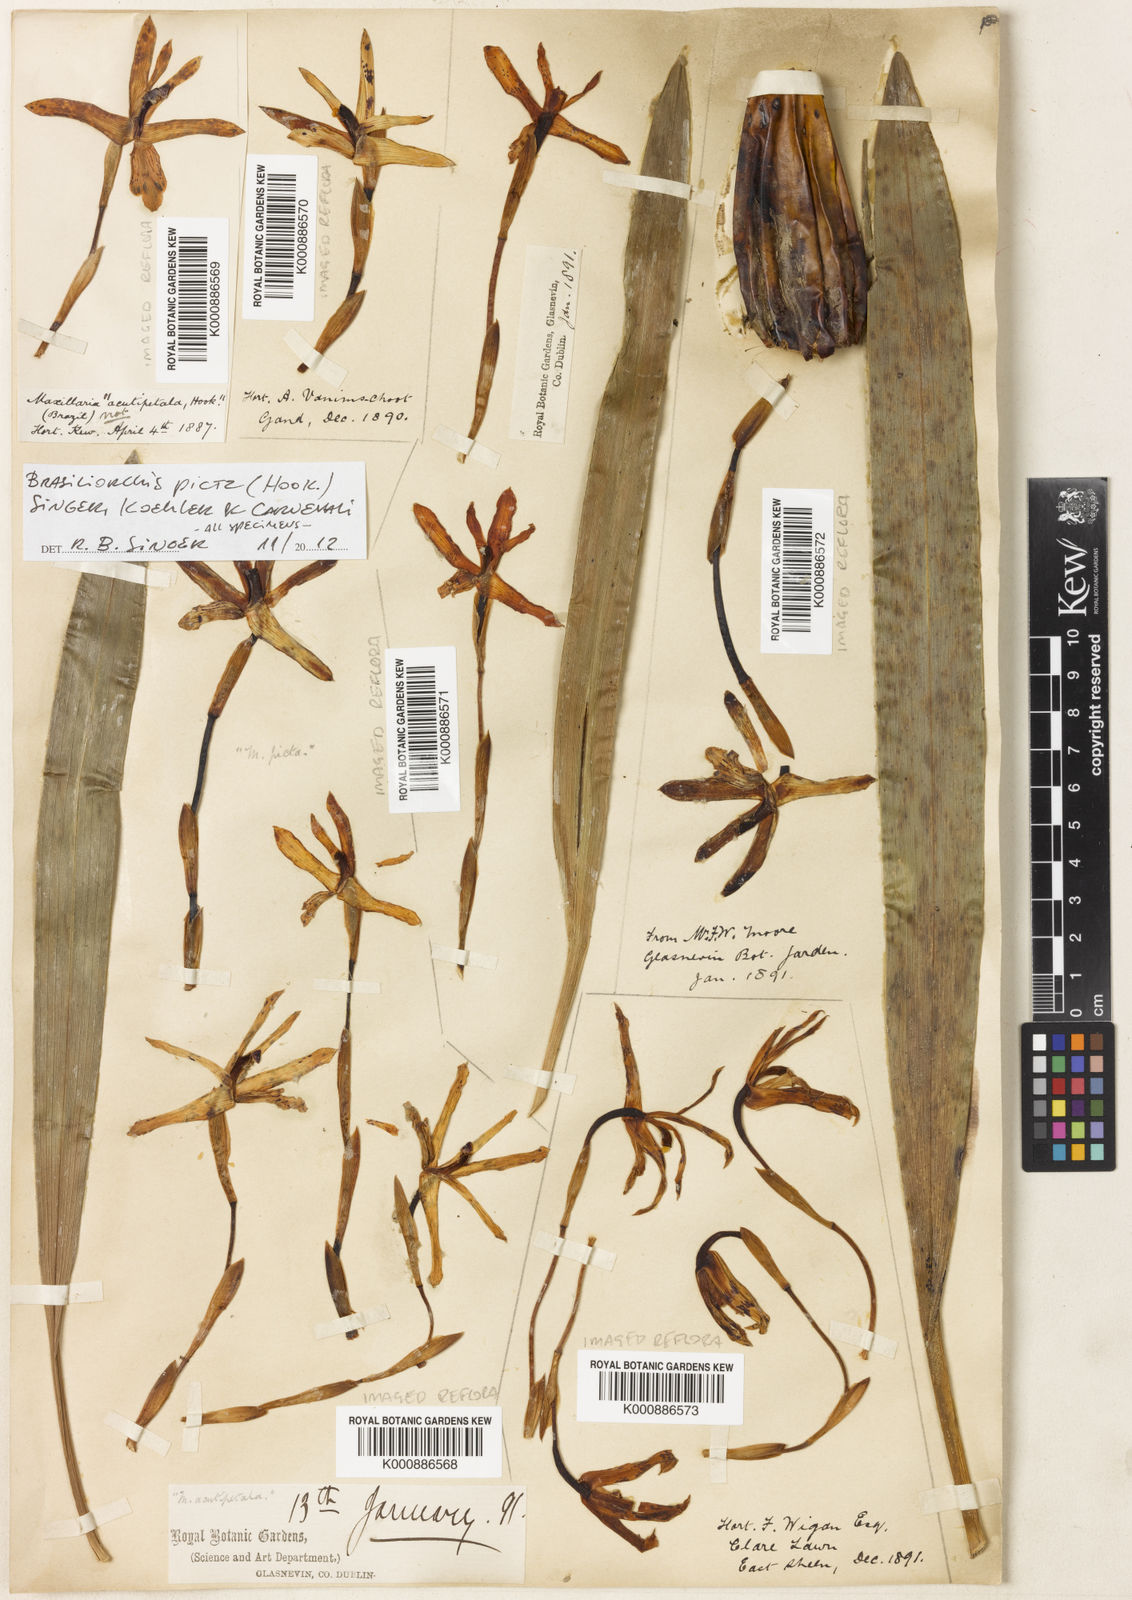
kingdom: Plantae
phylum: Tracheophyta
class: Liliopsida
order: Asparagales
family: Orchidaceae
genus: Maxillaria
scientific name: Maxillaria
